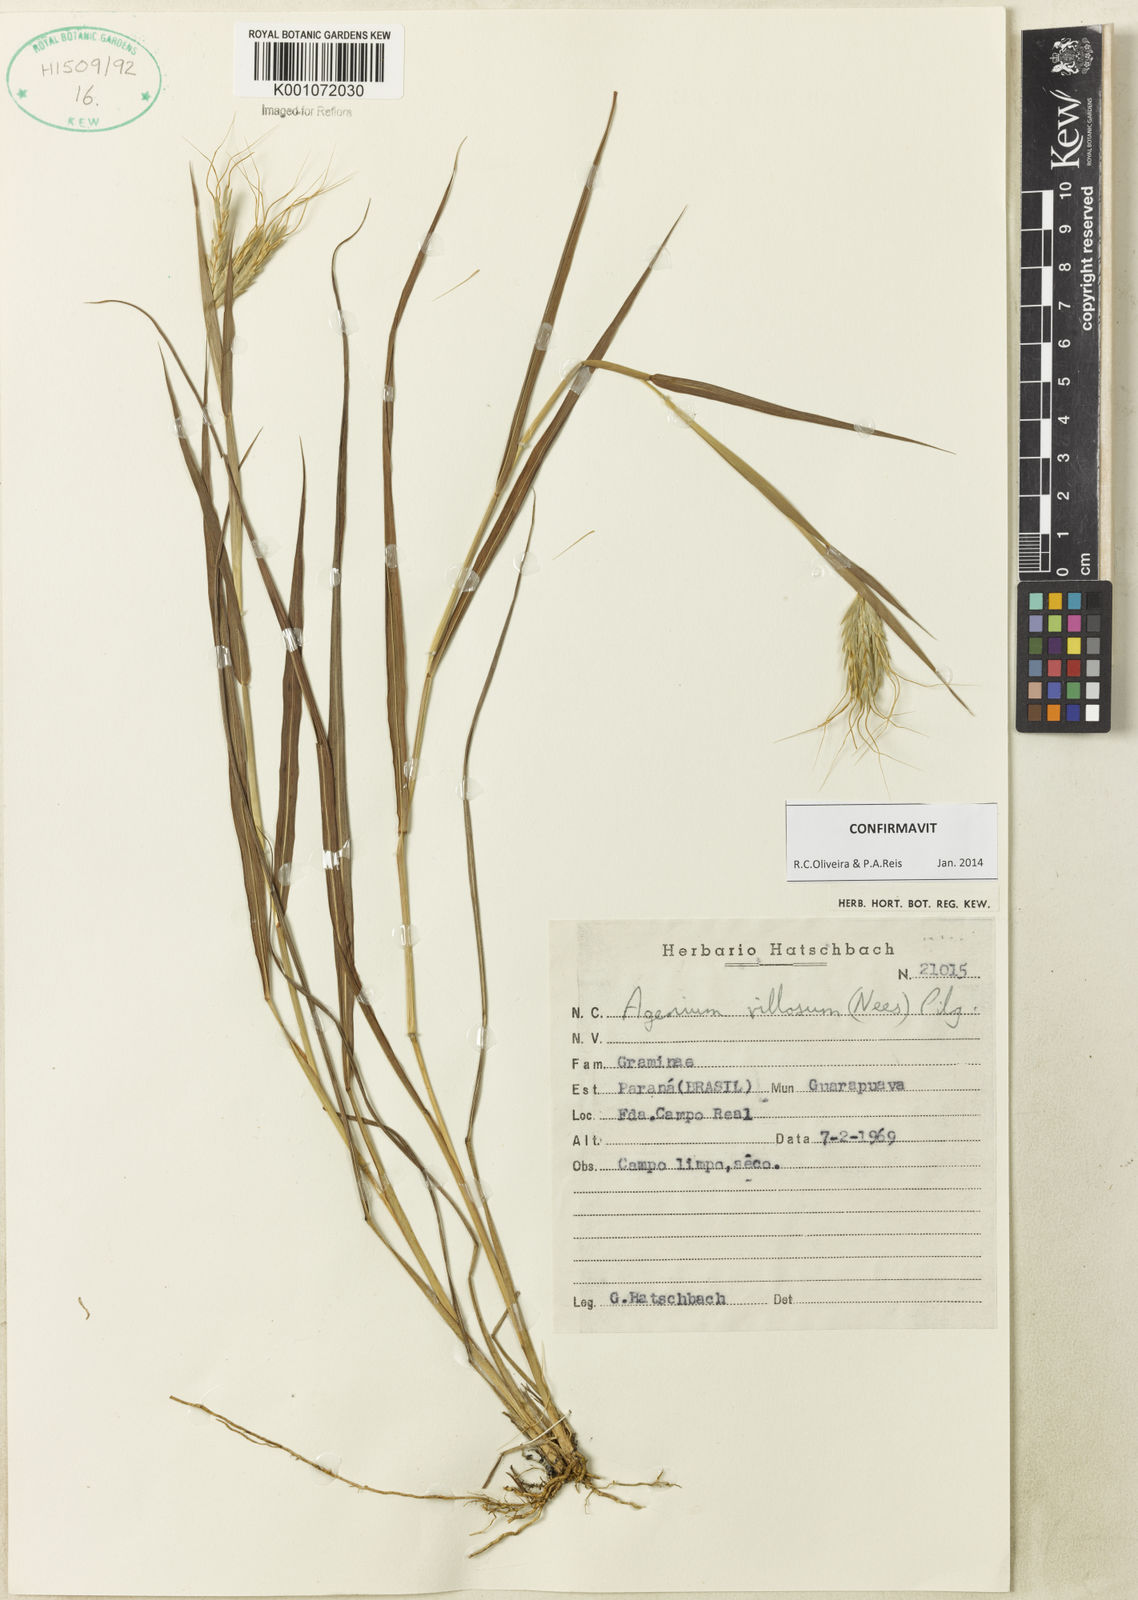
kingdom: Plantae
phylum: Tracheophyta
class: Liliopsida
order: Poales
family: Poaceae
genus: Agenium
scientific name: Agenium villosum
